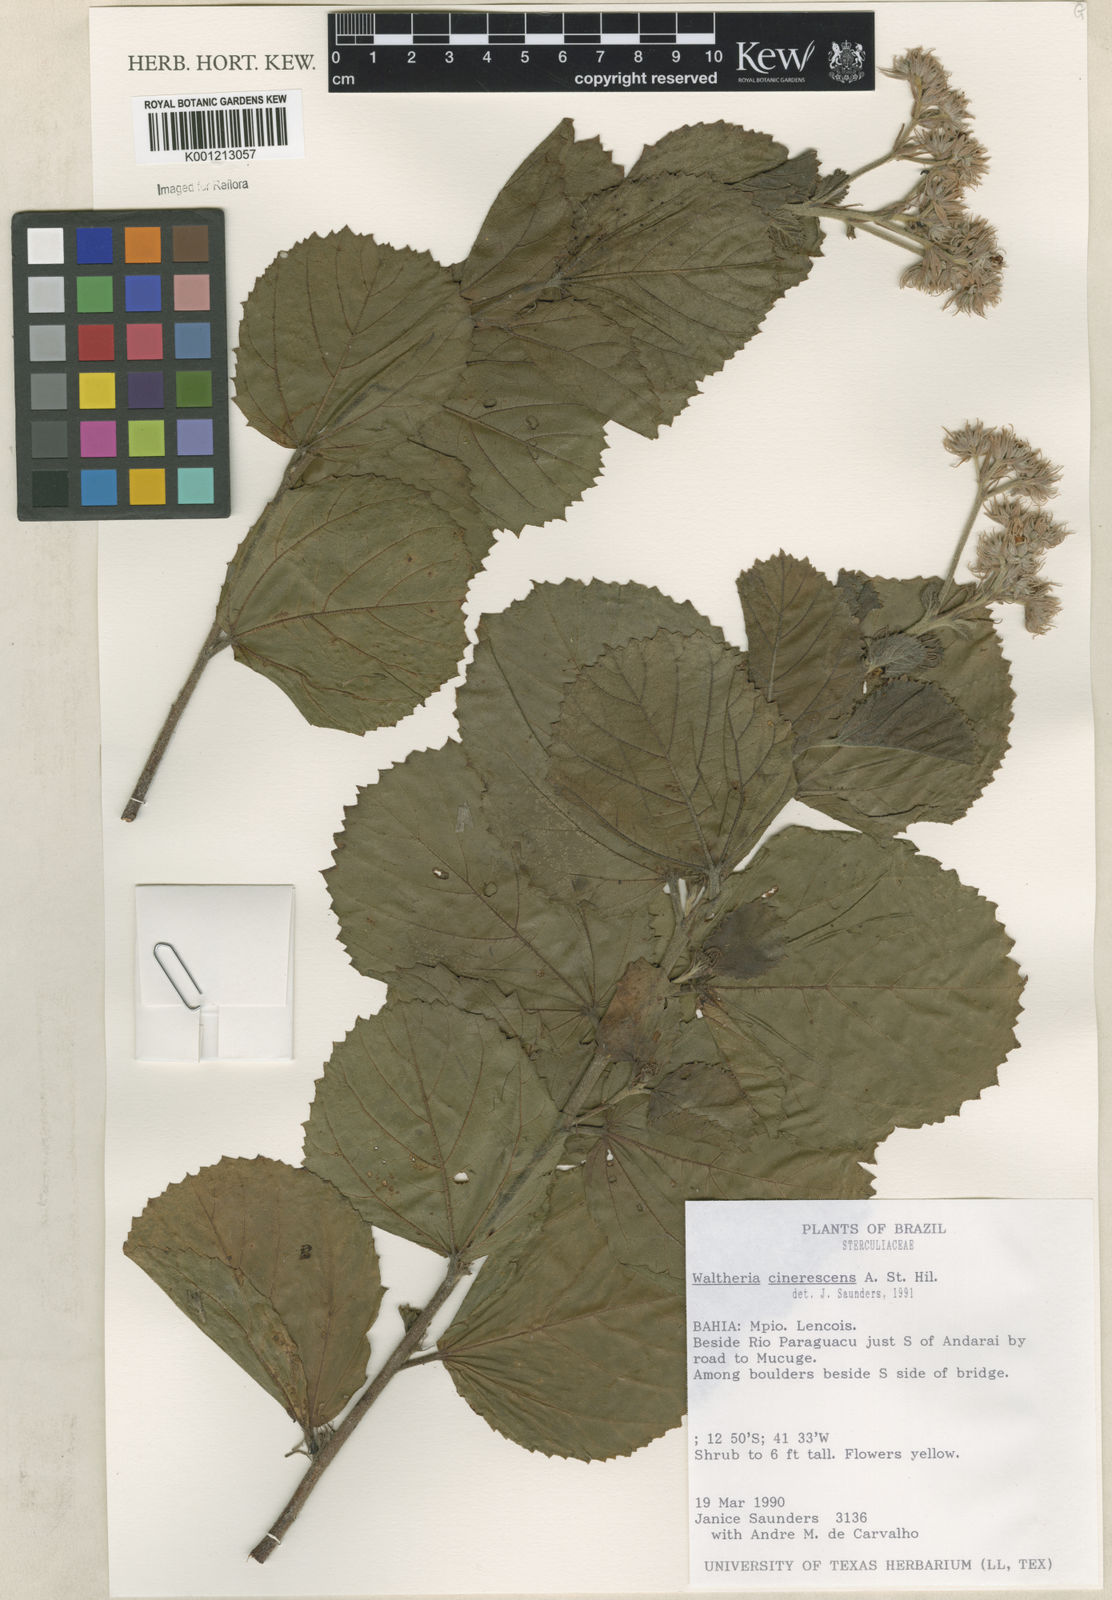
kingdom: Plantae
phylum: Tracheophyta
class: Magnoliopsida
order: Malvales
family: Malvaceae
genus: Waltheria
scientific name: Waltheria cinerescens
